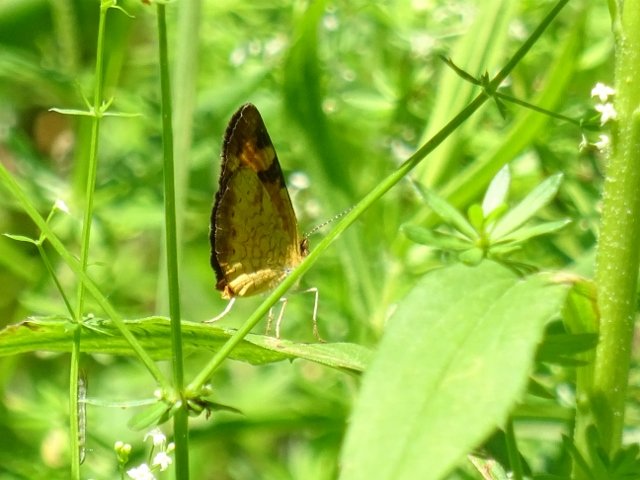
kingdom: Animalia
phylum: Arthropoda
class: Insecta
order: Lepidoptera
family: Nymphalidae
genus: Phyciodes
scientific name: Phyciodes
